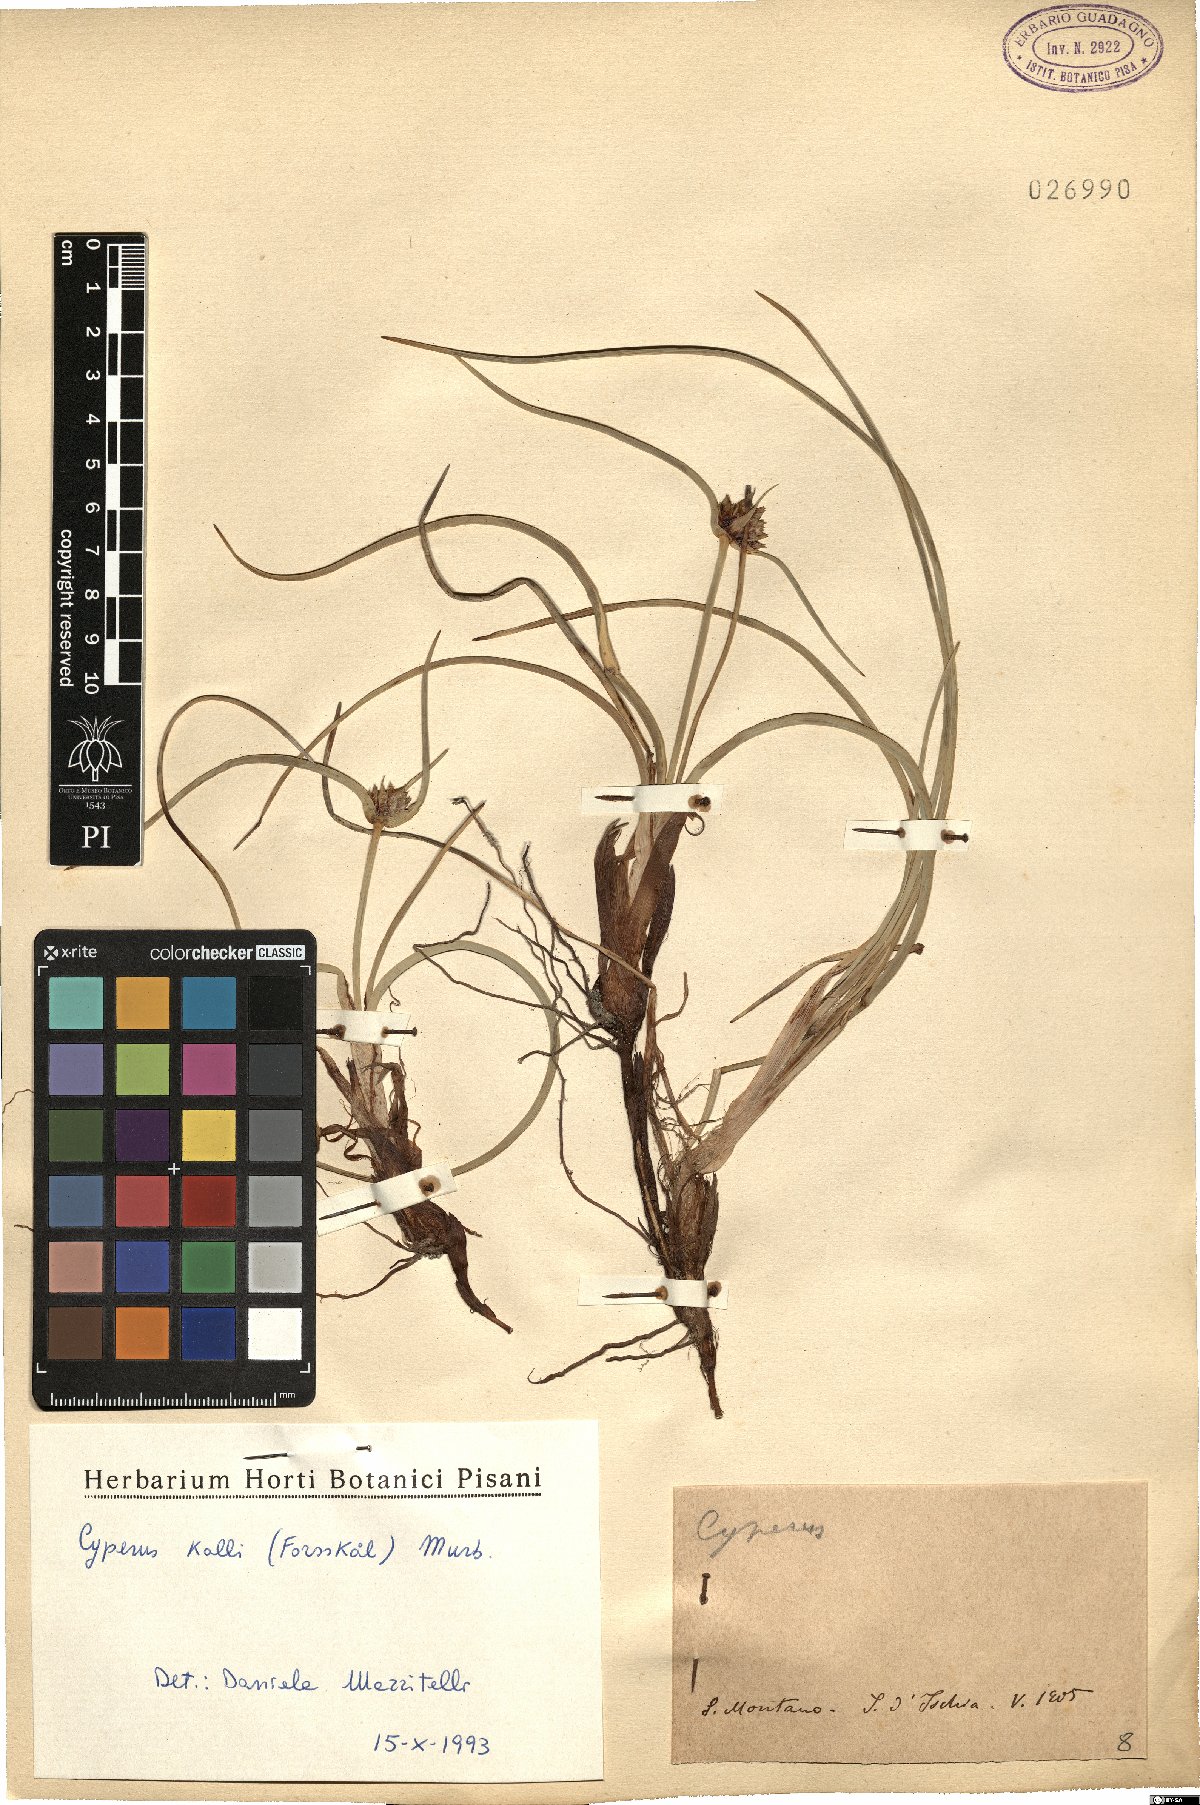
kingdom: Plantae
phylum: Tracheophyta
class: Liliopsida
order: Poales
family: Cyperaceae
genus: Cyperus
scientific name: Cyperus capitatus
